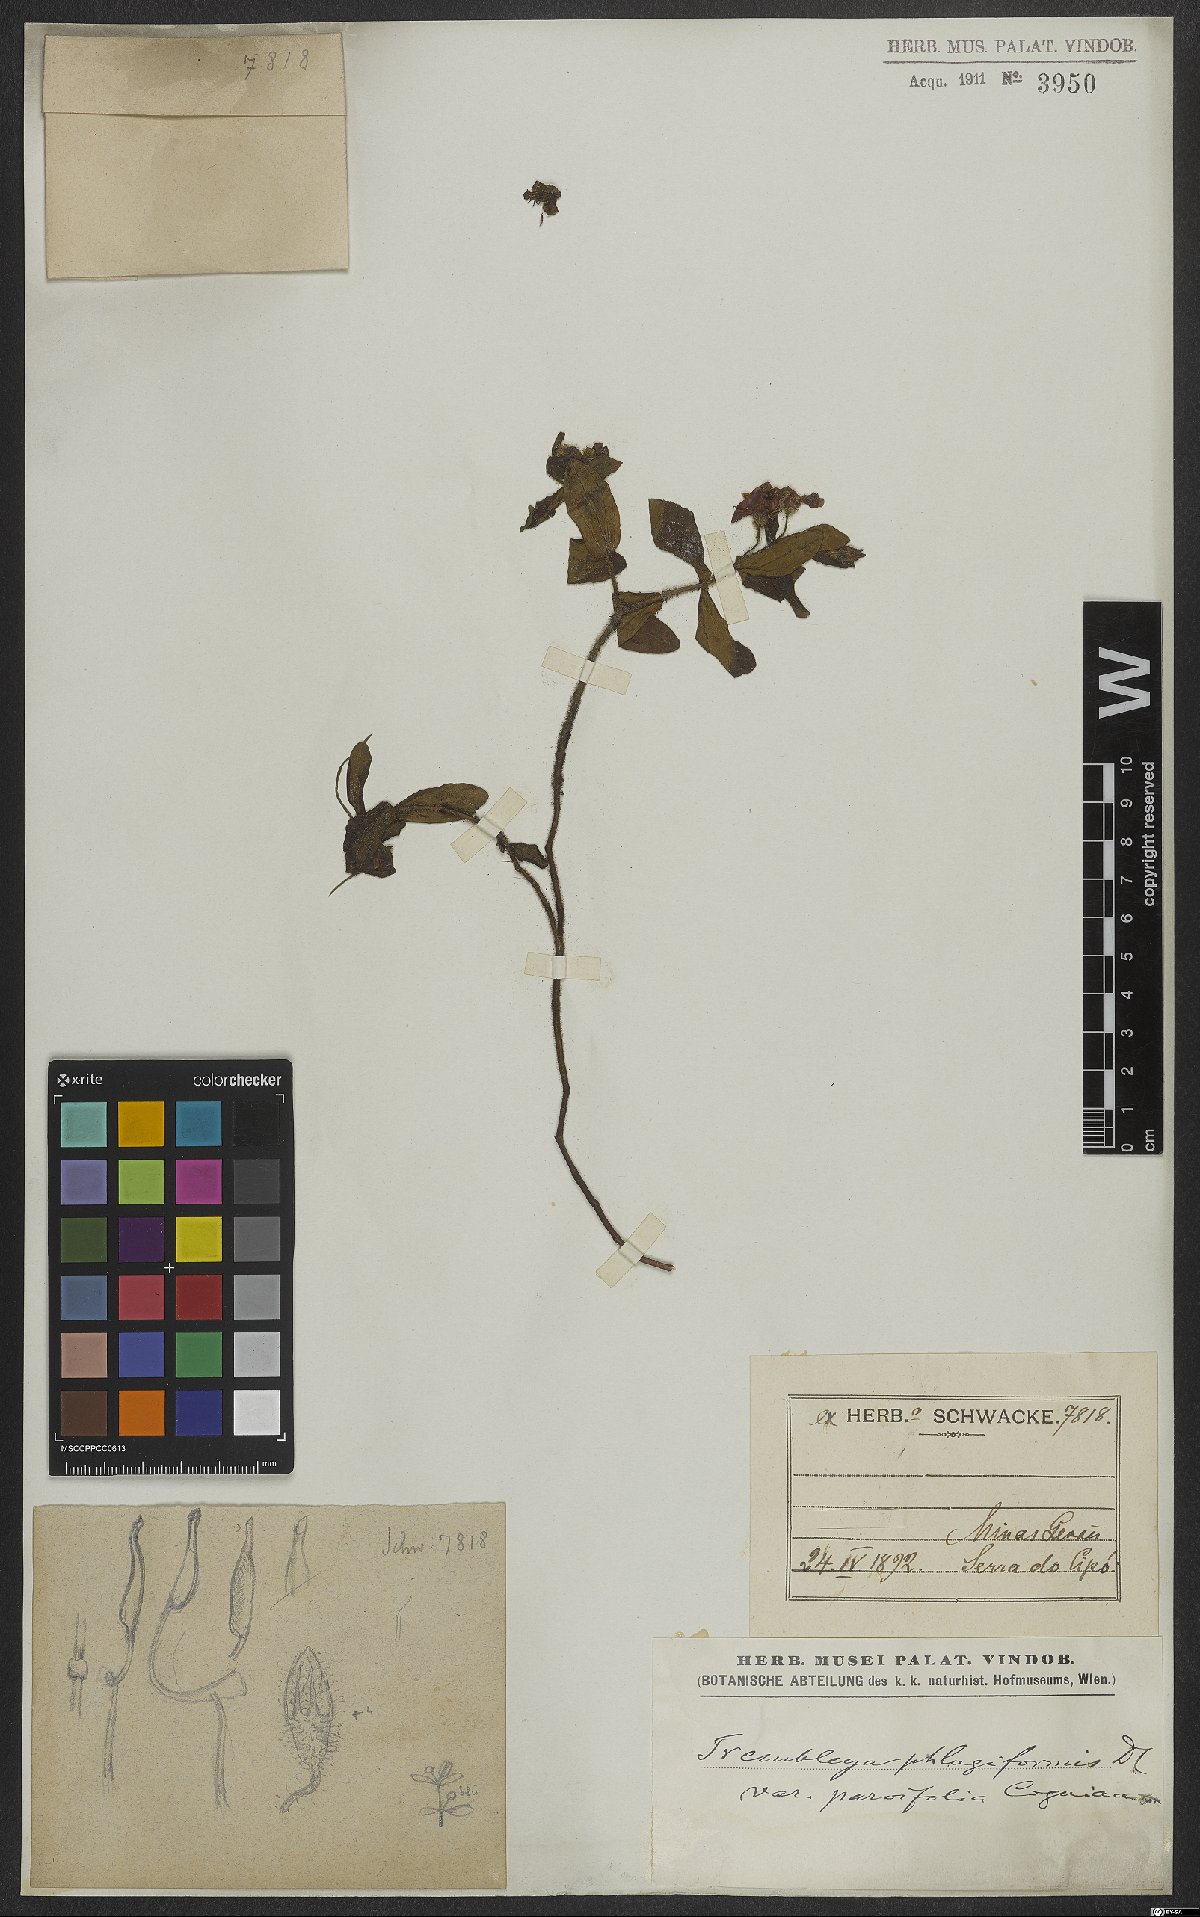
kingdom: Plantae
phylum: Tracheophyta
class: Magnoliopsida
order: Myrtales
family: Melastomataceae
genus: Microlicia
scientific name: Microlicia phlogiformis
